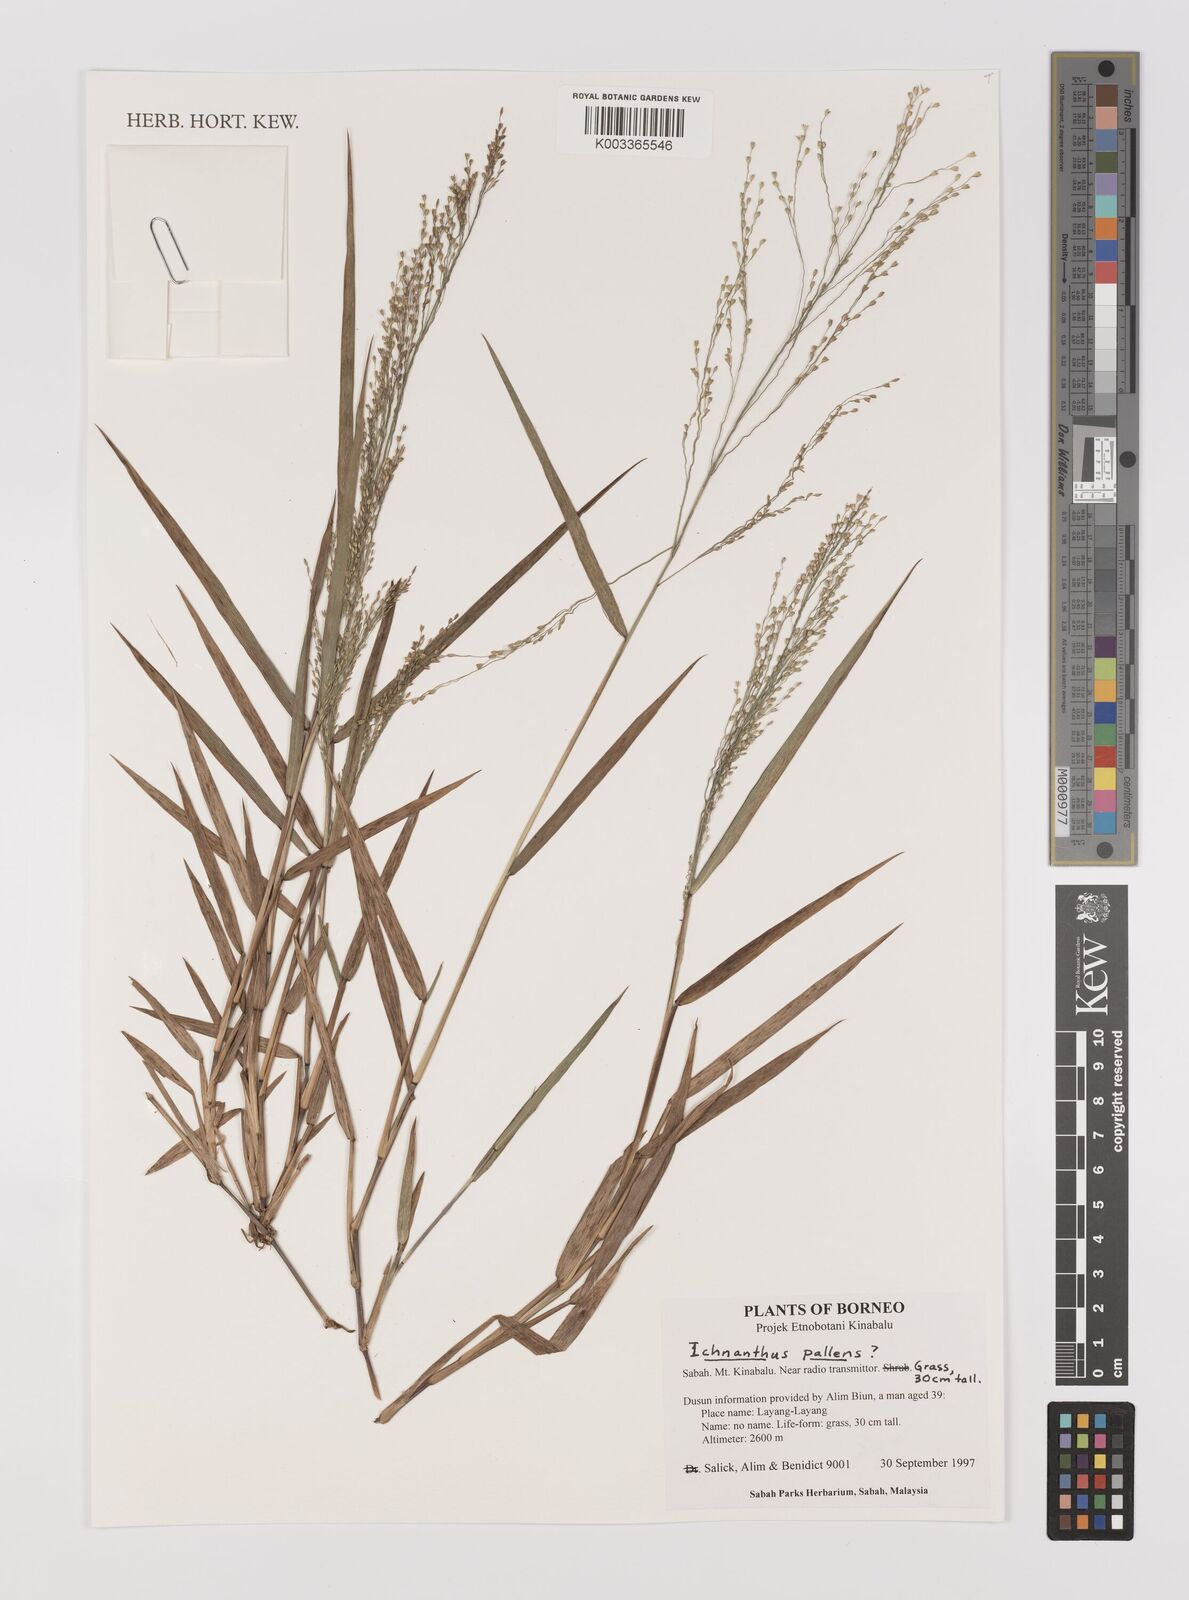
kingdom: Plantae
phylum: Tracheophyta
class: Liliopsida
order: Poales
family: Poaceae
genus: Ichnanthus
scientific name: Ichnanthus pallens
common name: Water grass
